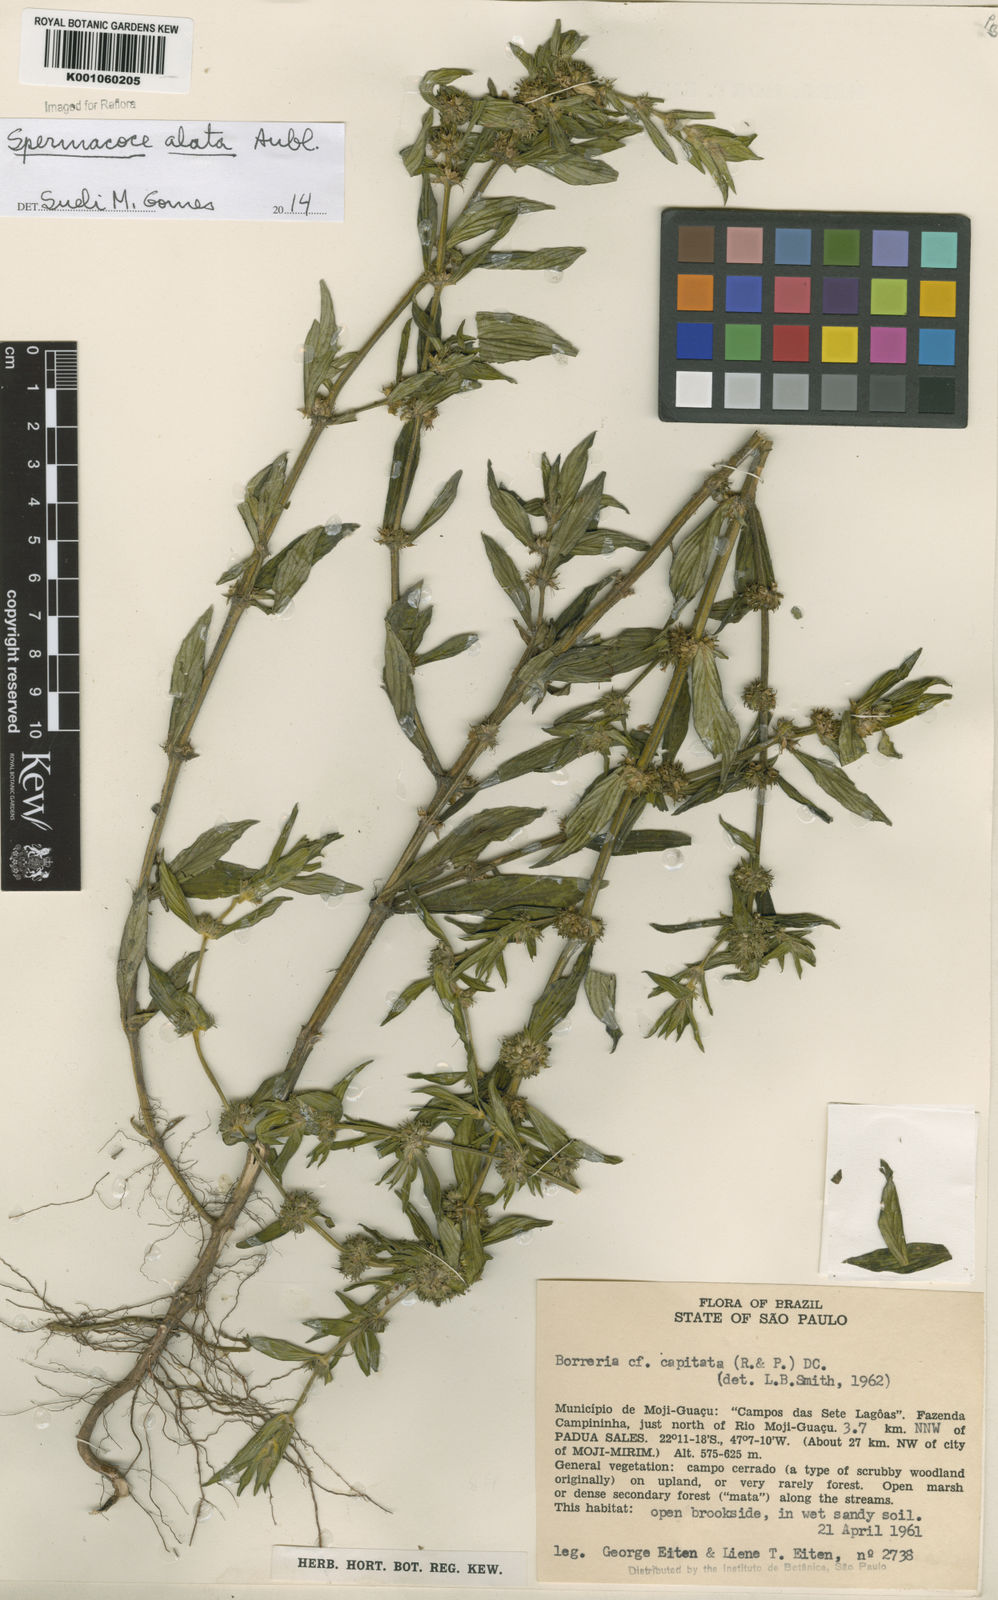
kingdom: Plantae
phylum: Tracheophyta
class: Magnoliopsida
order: Gentianales
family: Rubiaceae
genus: Spermacoce
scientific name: Spermacoce
